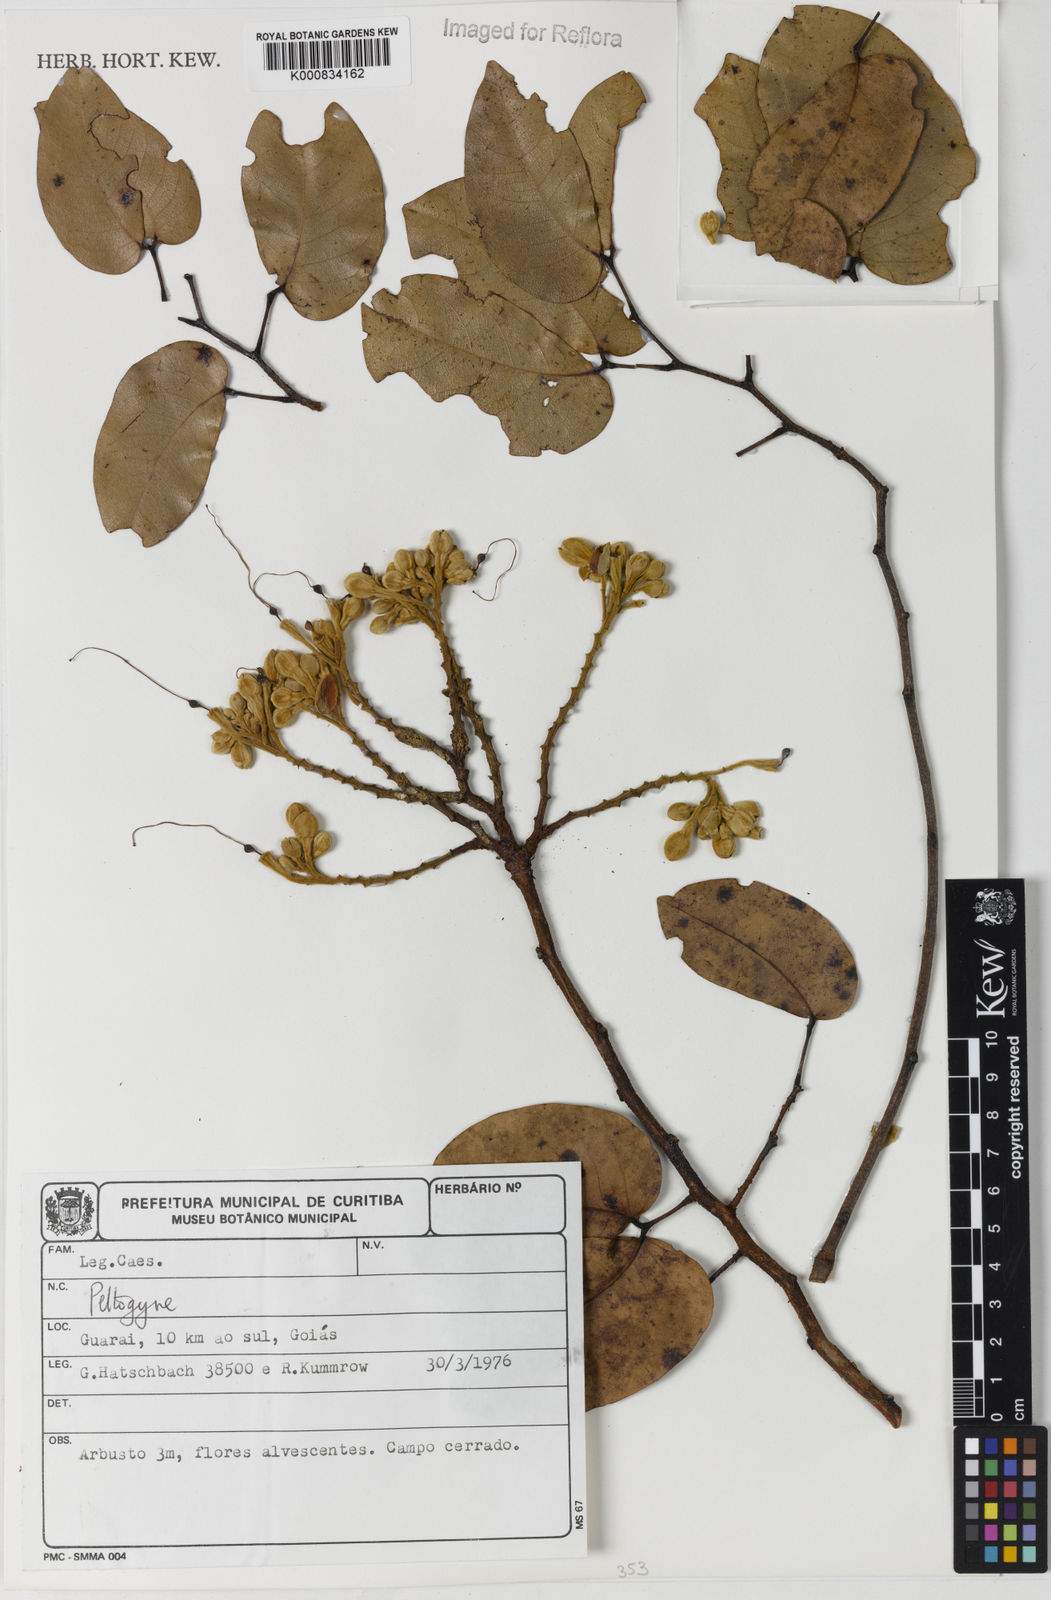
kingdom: Plantae
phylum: Tracheophyta
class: Magnoliopsida
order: Fabales
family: Fabaceae
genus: Peltogyne
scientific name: Peltogyne
